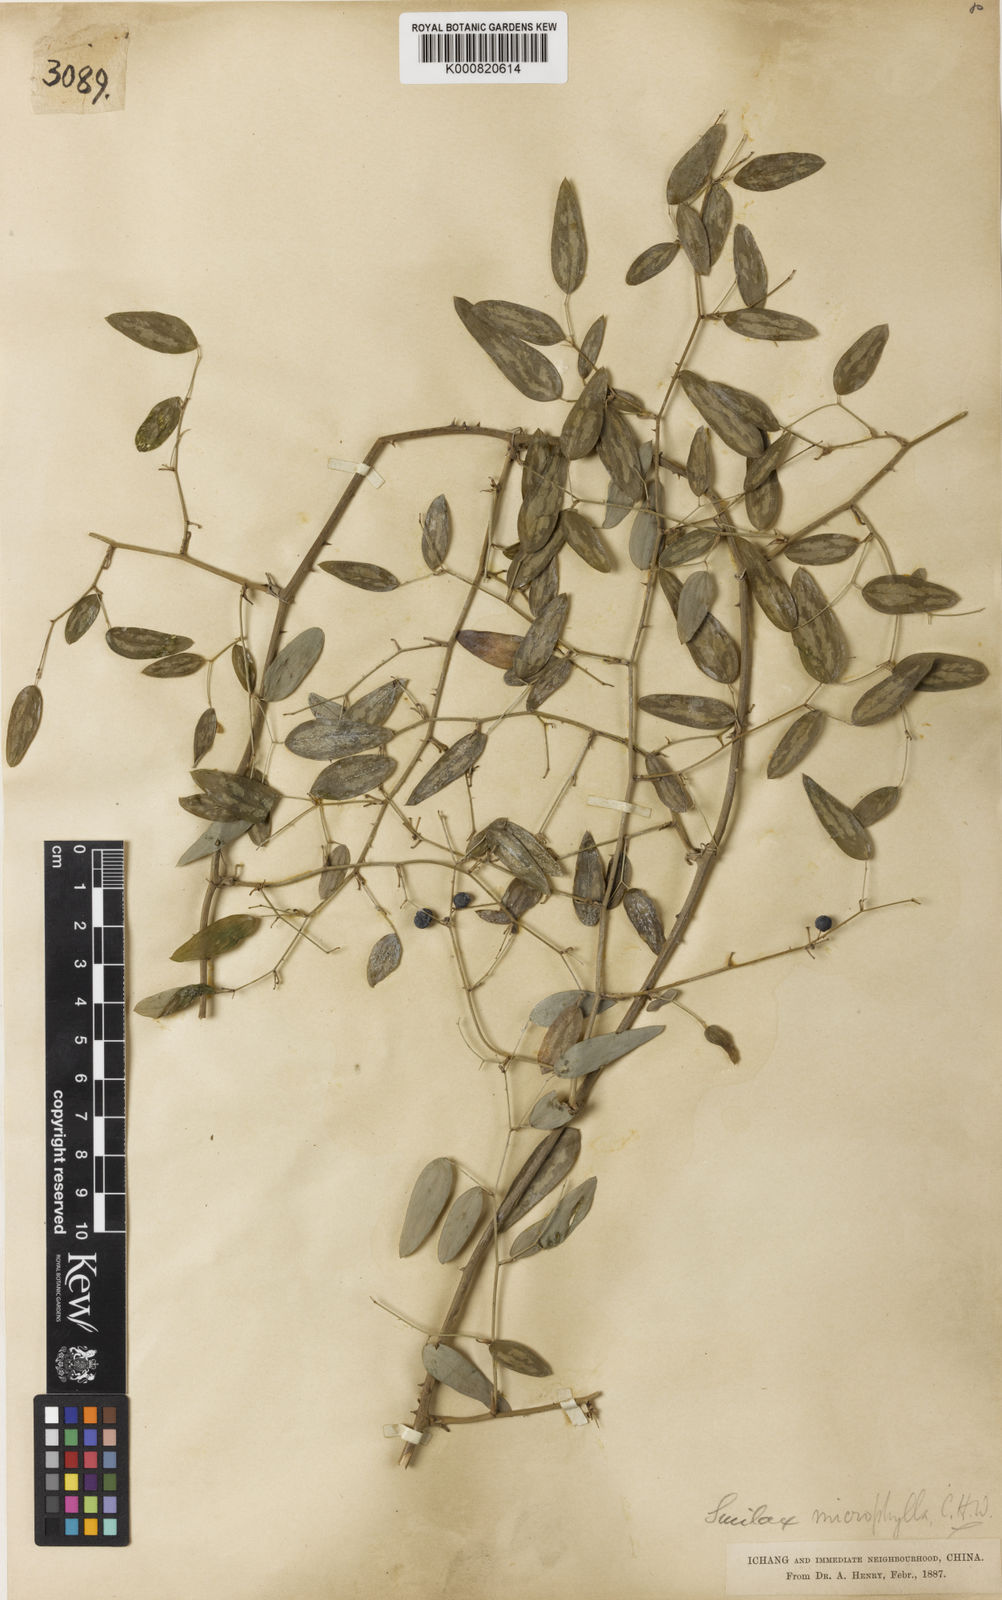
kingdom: Plantae
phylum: Tracheophyta
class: Liliopsida
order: Liliales
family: Smilacaceae
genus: Smilax
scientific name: Smilax microphylla
